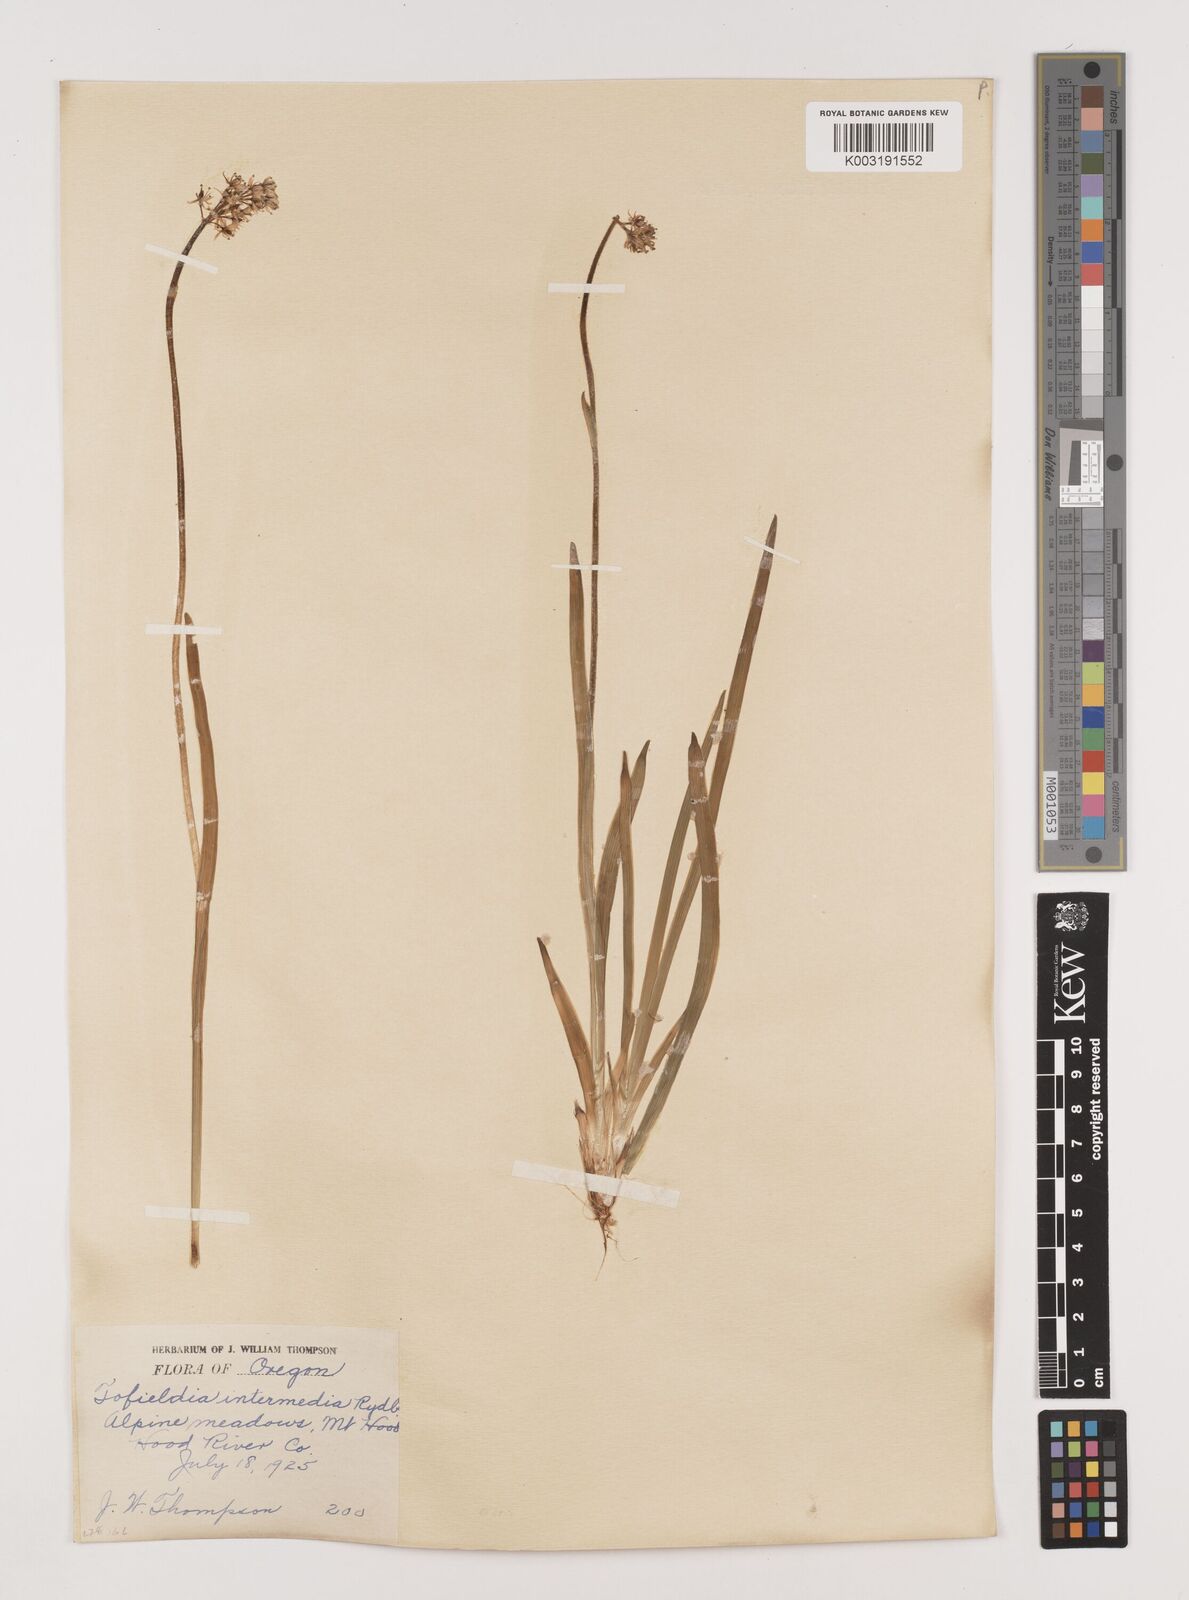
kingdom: Plantae
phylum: Tracheophyta
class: Liliopsida
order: Alismatales
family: Tofieldiaceae
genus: Triantha
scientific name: Triantha occidentalis
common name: Western false asphodel
